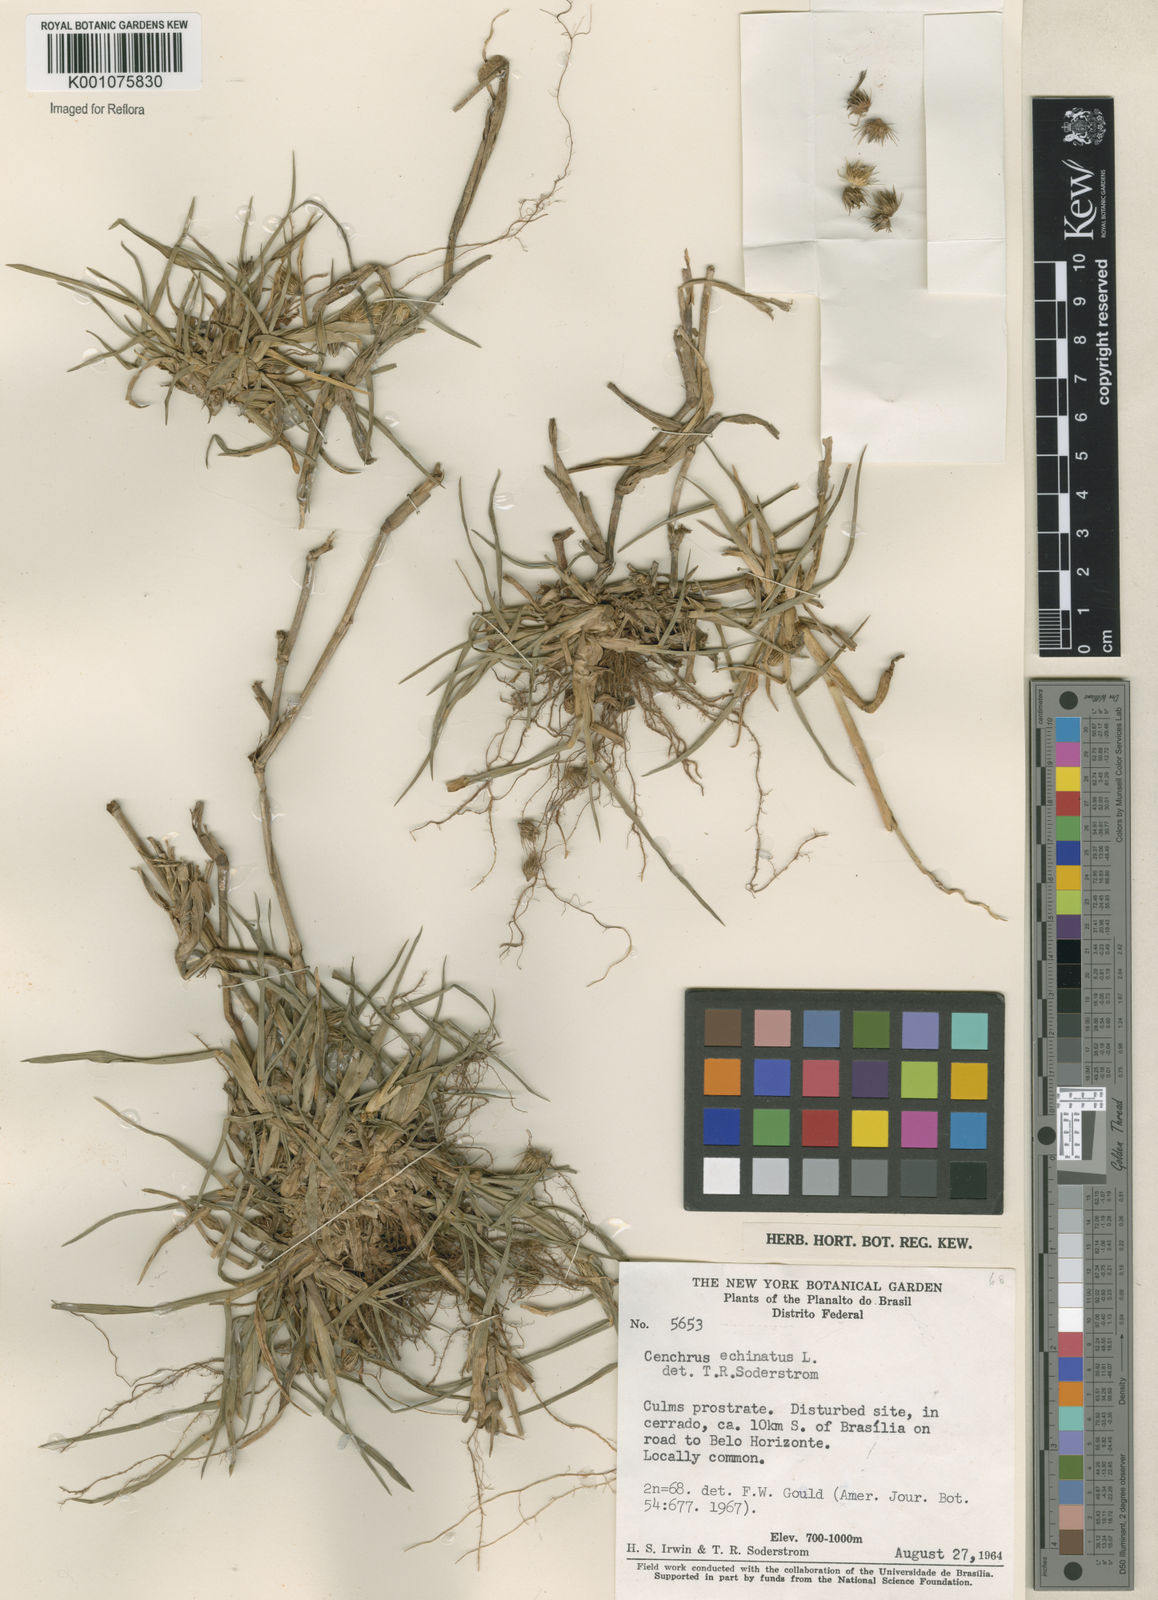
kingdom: Plantae
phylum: Tracheophyta
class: Liliopsida
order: Poales
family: Poaceae
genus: Cenchrus
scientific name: Cenchrus echinatus
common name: Southern sandbur
